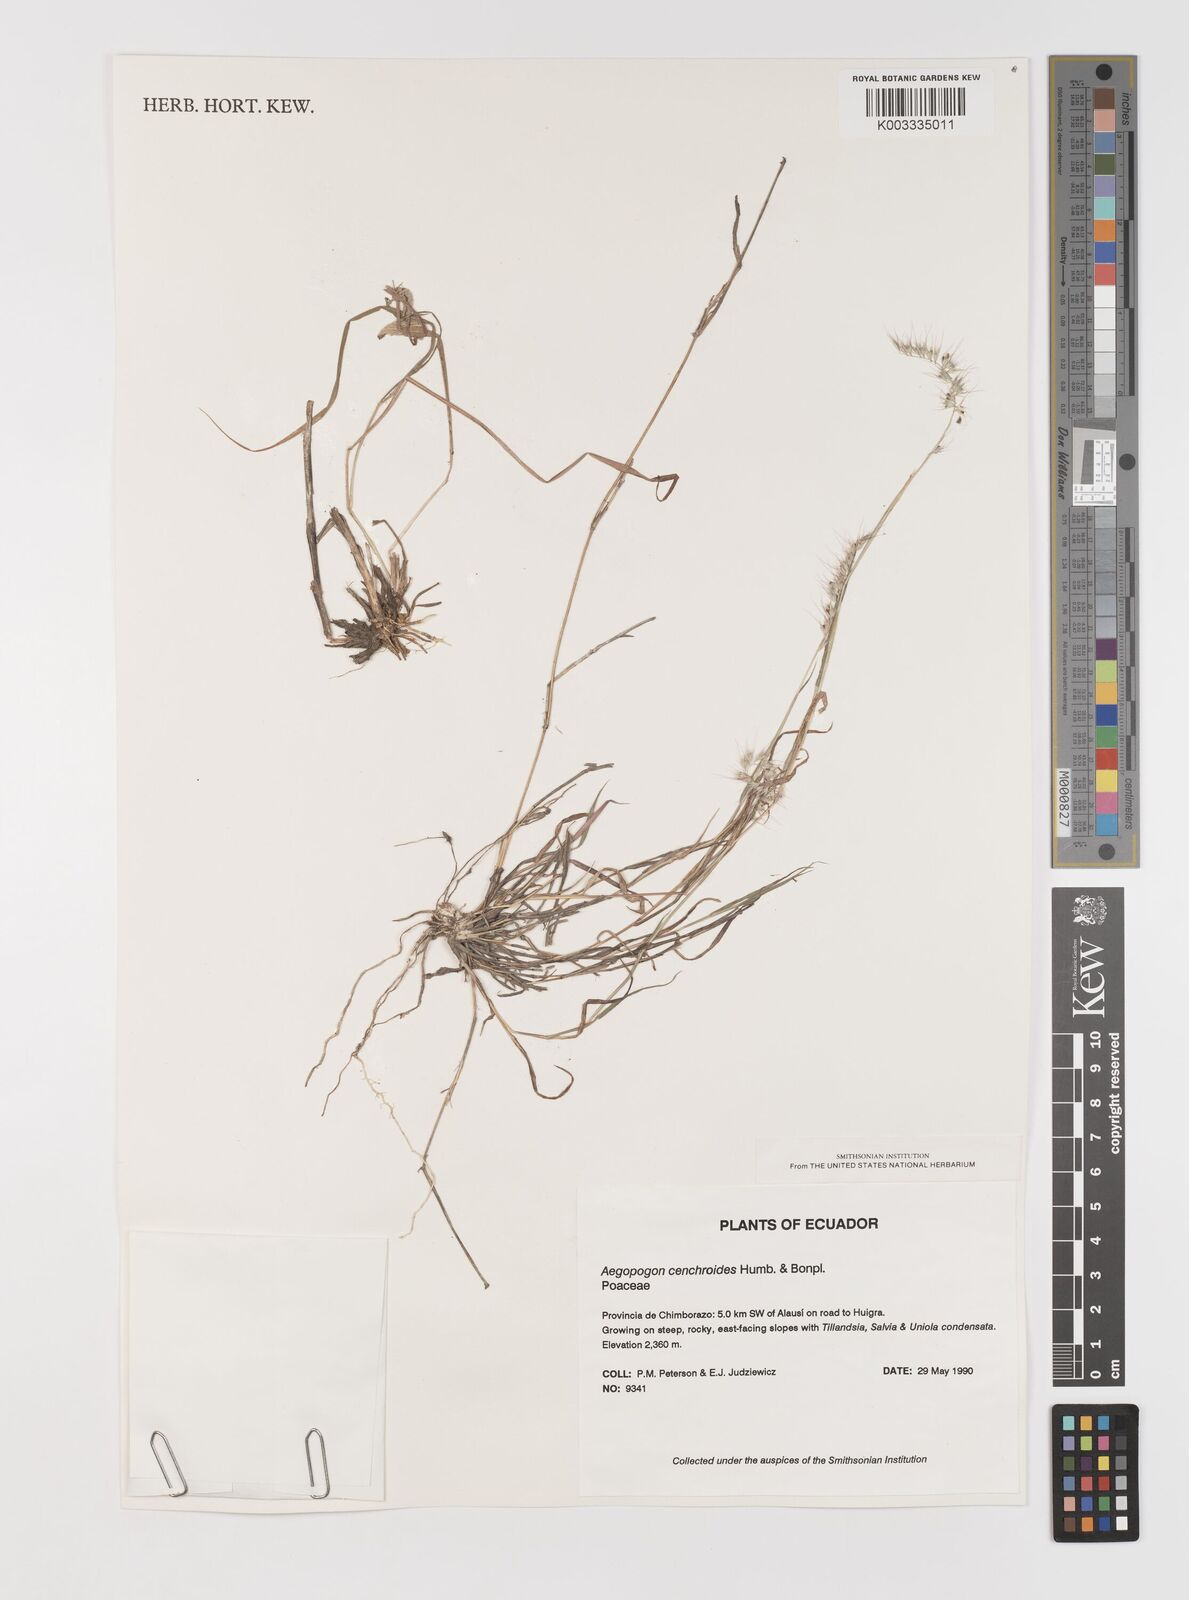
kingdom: Plantae
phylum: Tracheophyta
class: Liliopsida
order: Poales
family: Poaceae
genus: Muhlenbergia
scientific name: Muhlenbergia cenchroides
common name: Relaxgrass
